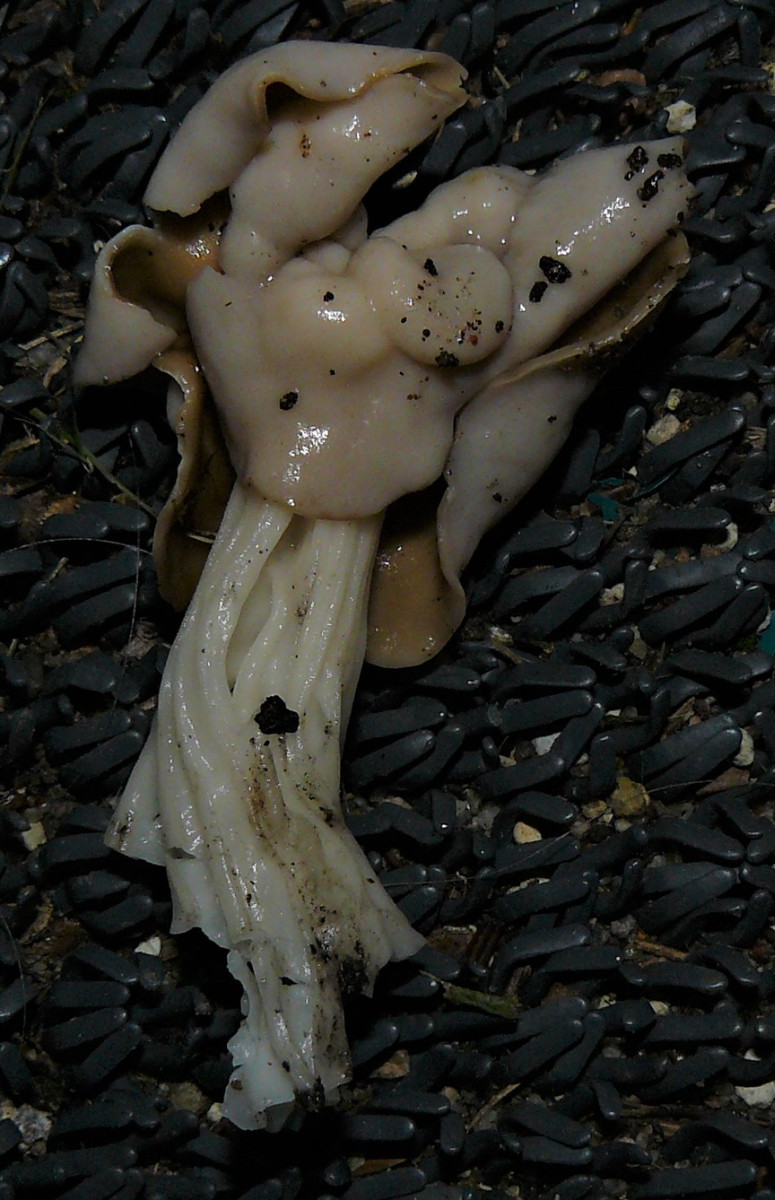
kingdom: Fungi
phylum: Ascomycota
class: Pezizomycetes
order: Pezizales
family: Helvellaceae
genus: Helvella
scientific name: Helvella crispa
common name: kruset foldhat
